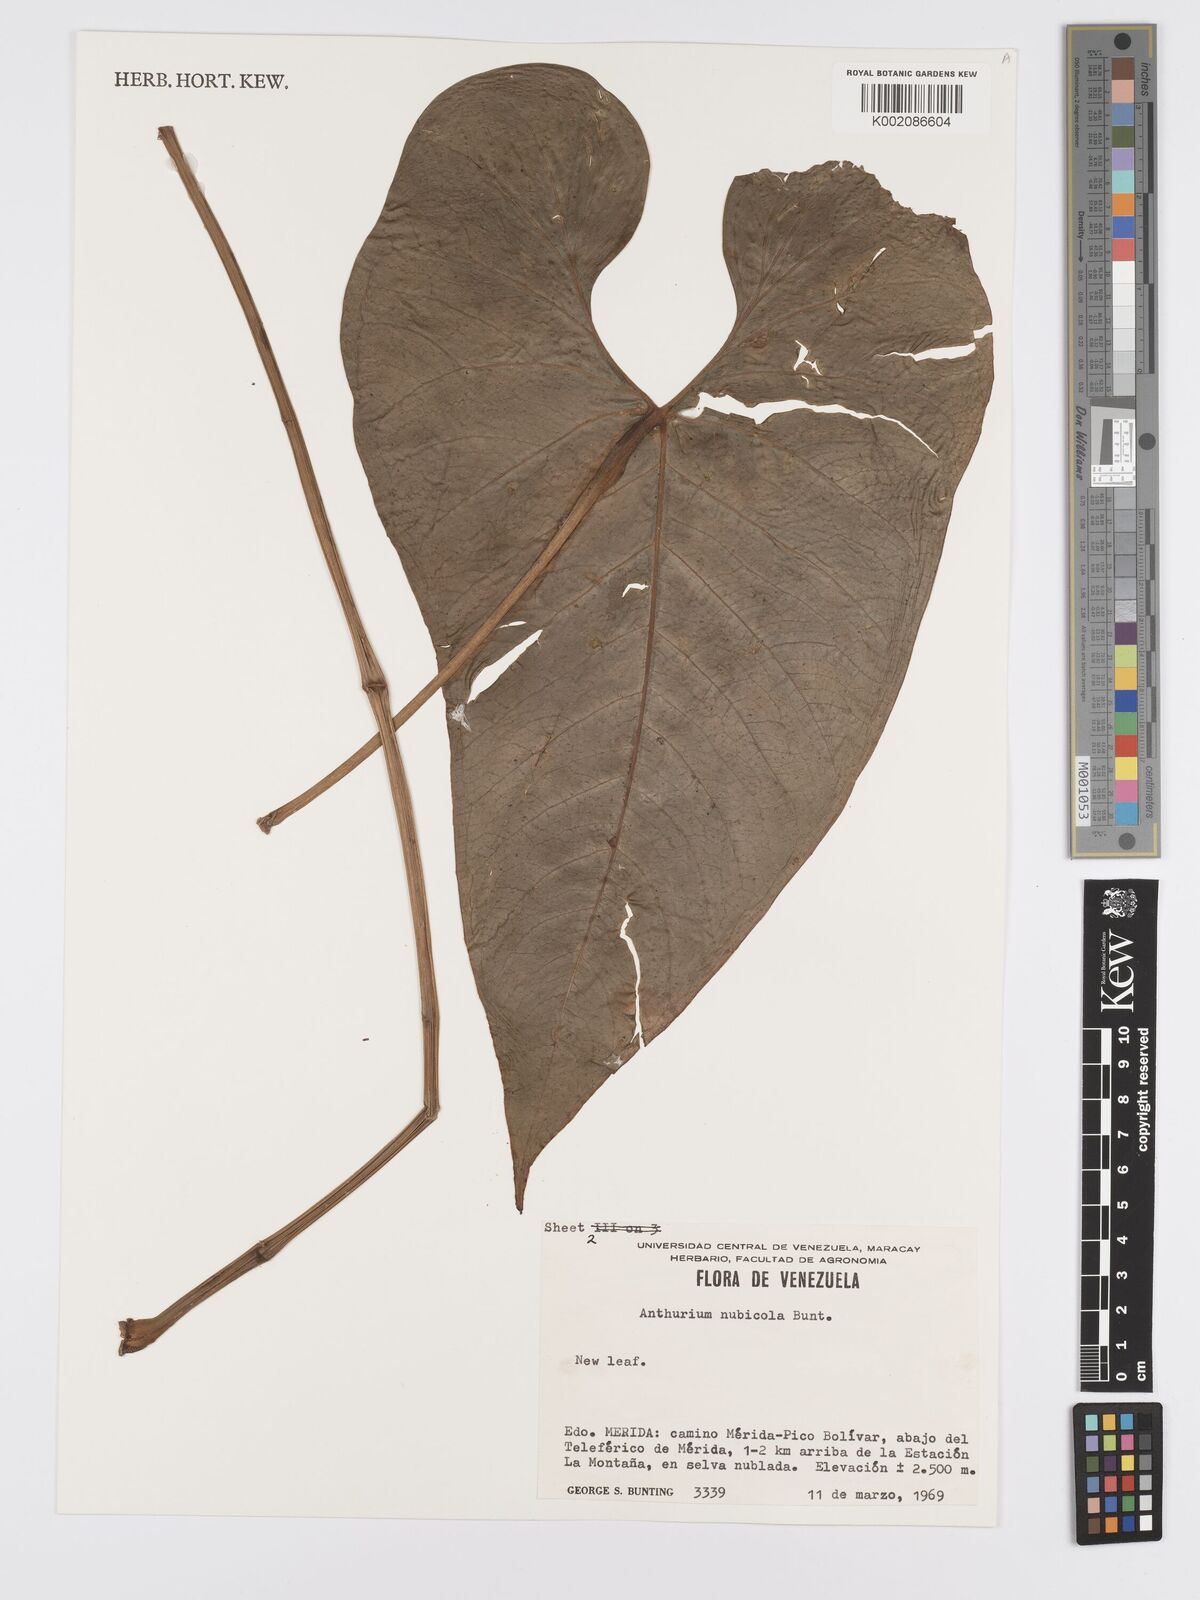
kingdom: Plantae
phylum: Tracheophyta
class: Liliopsida
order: Alismatales
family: Araceae
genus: Anthurium
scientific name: Anthurium nubicola
